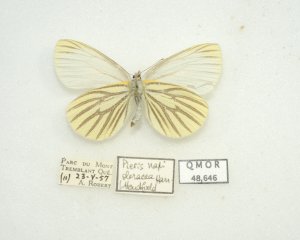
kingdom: Animalia
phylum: Arthropoda
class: Insecta
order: Lepidoptera
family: Pieridae
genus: Pieris
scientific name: Pieris oleracea
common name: Mustard White
